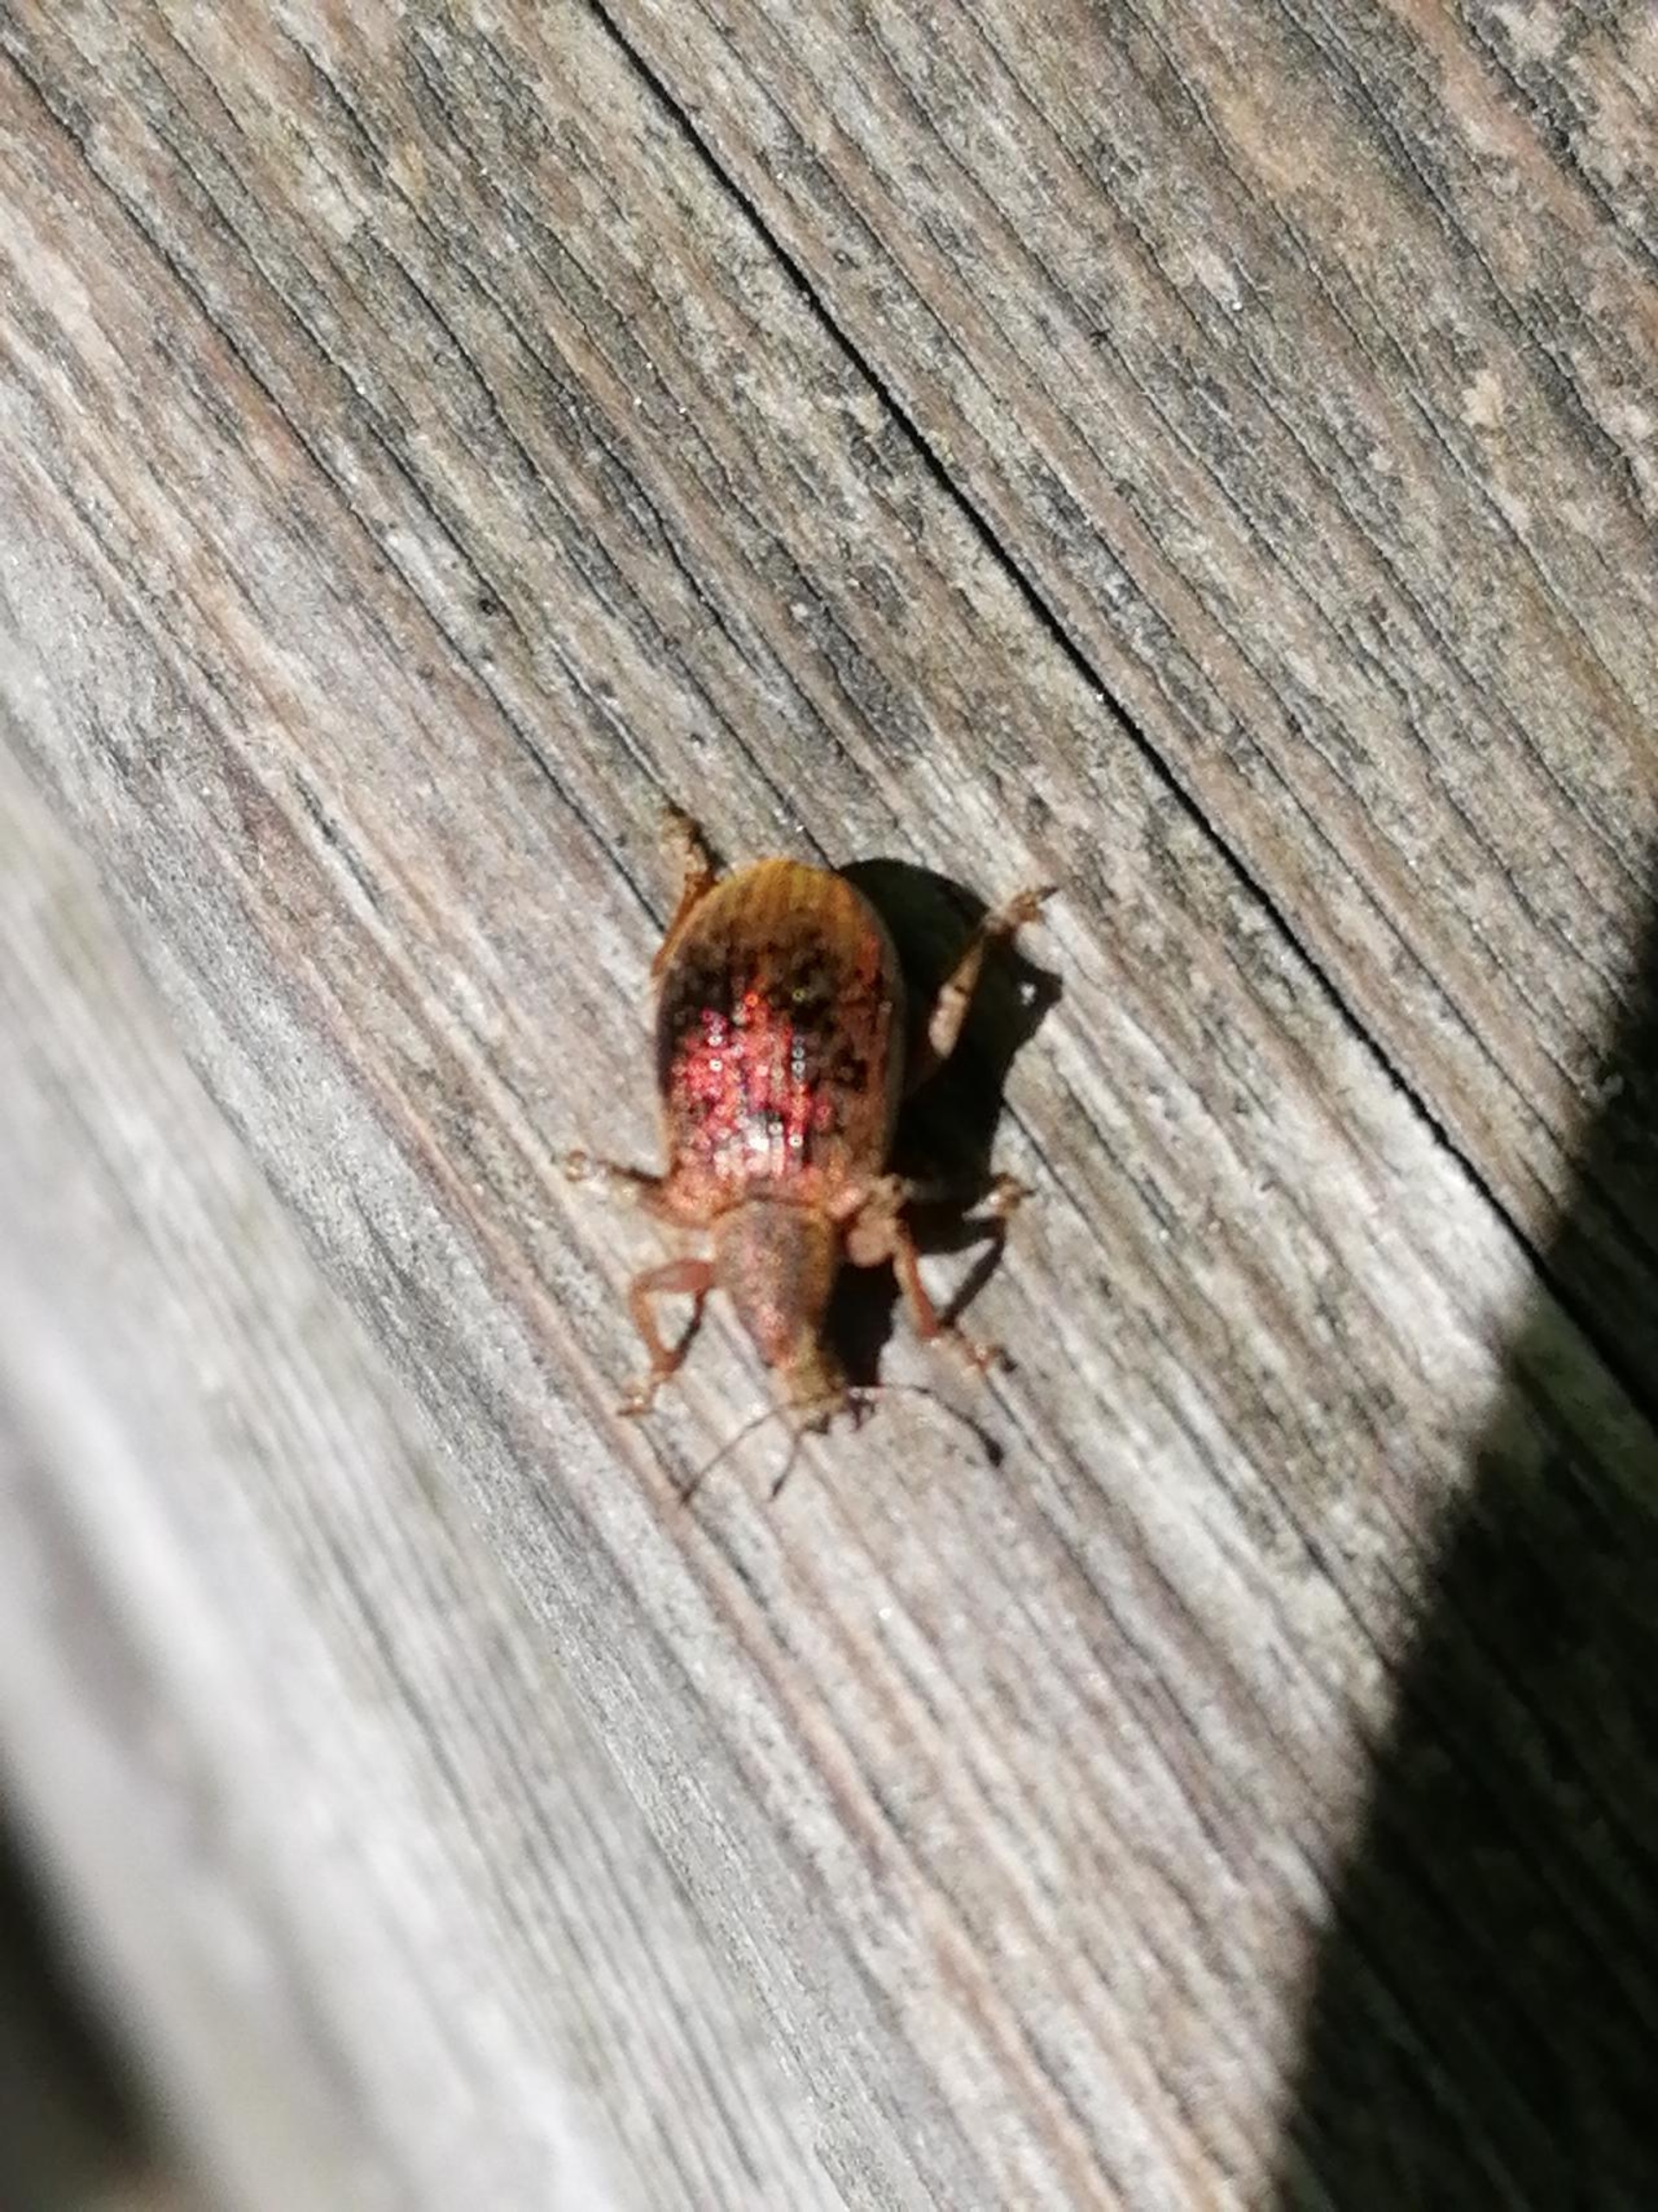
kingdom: Animalia
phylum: Arthropoda
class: Insecta
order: Coleoptera
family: Curculionidae
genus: Polydrusus
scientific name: Polydrusus mollis
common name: Blodsnudebille
